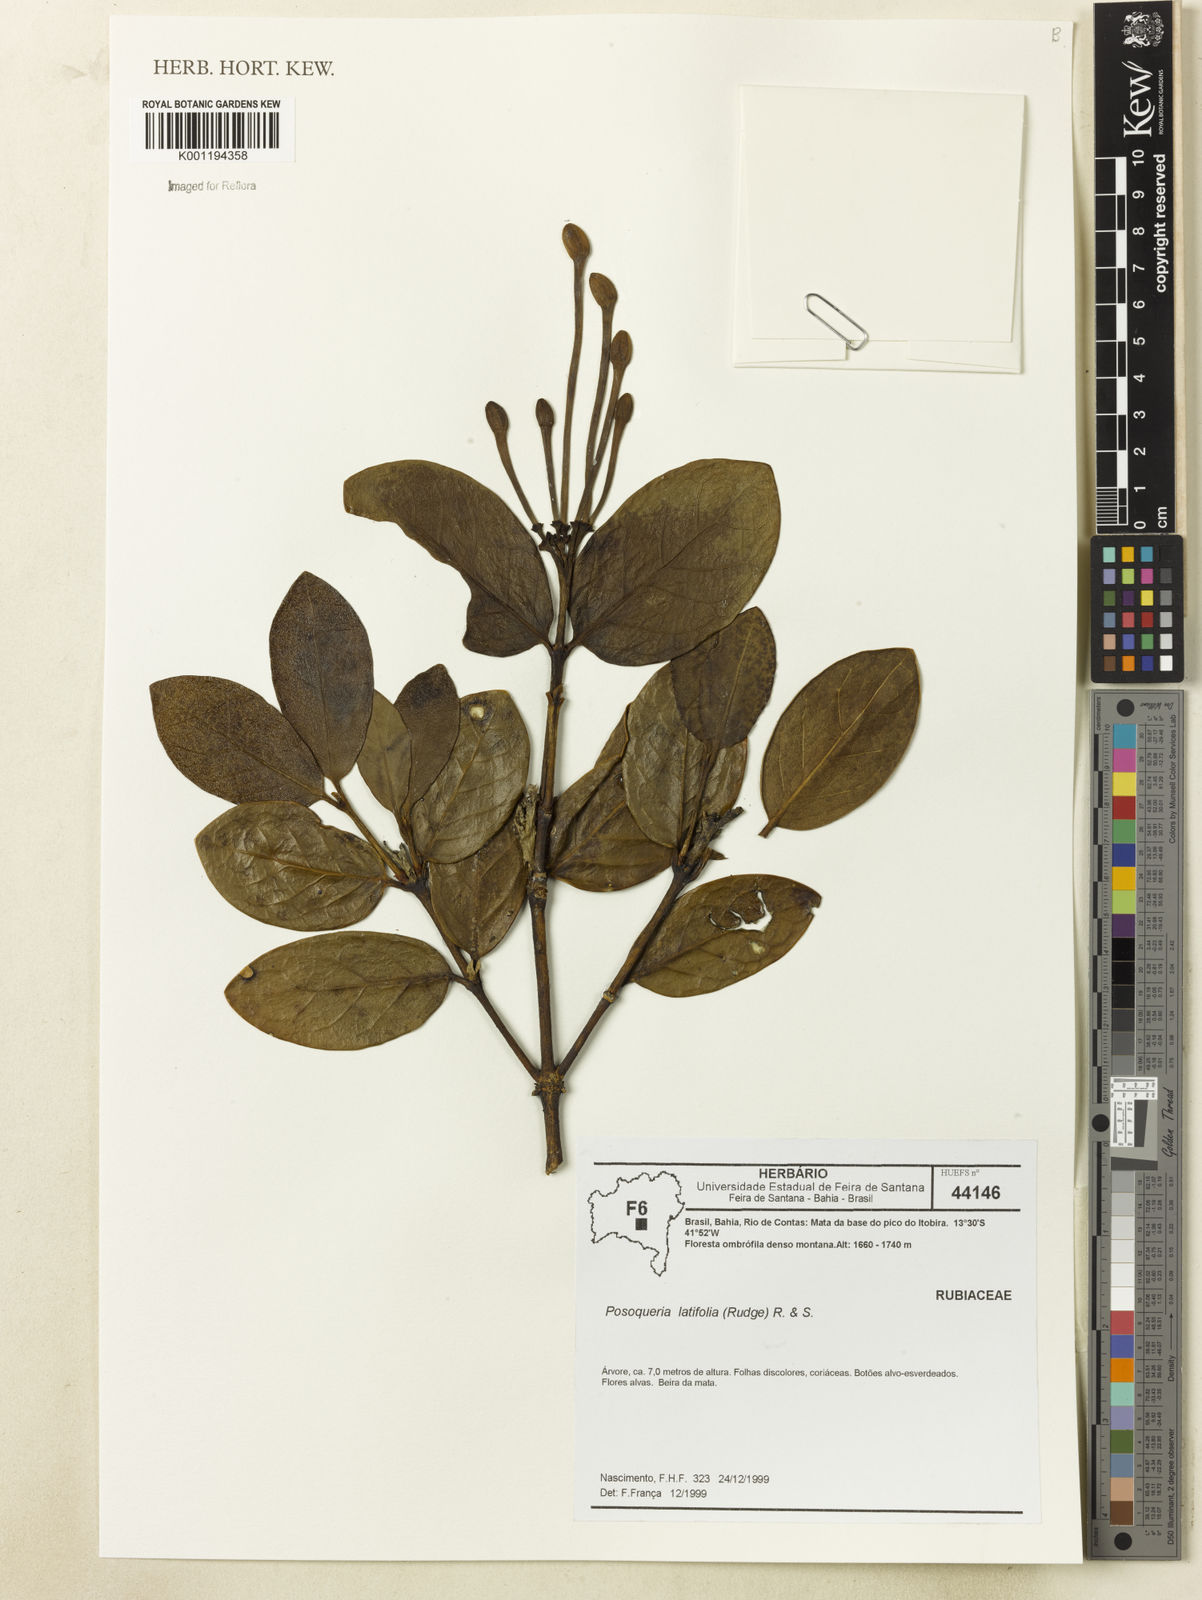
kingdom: Plantae
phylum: Tracheophyta
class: Magnoliopsida
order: Gentianales
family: Rubiaceae
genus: Posoqueria
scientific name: Posoqueria latifolia
